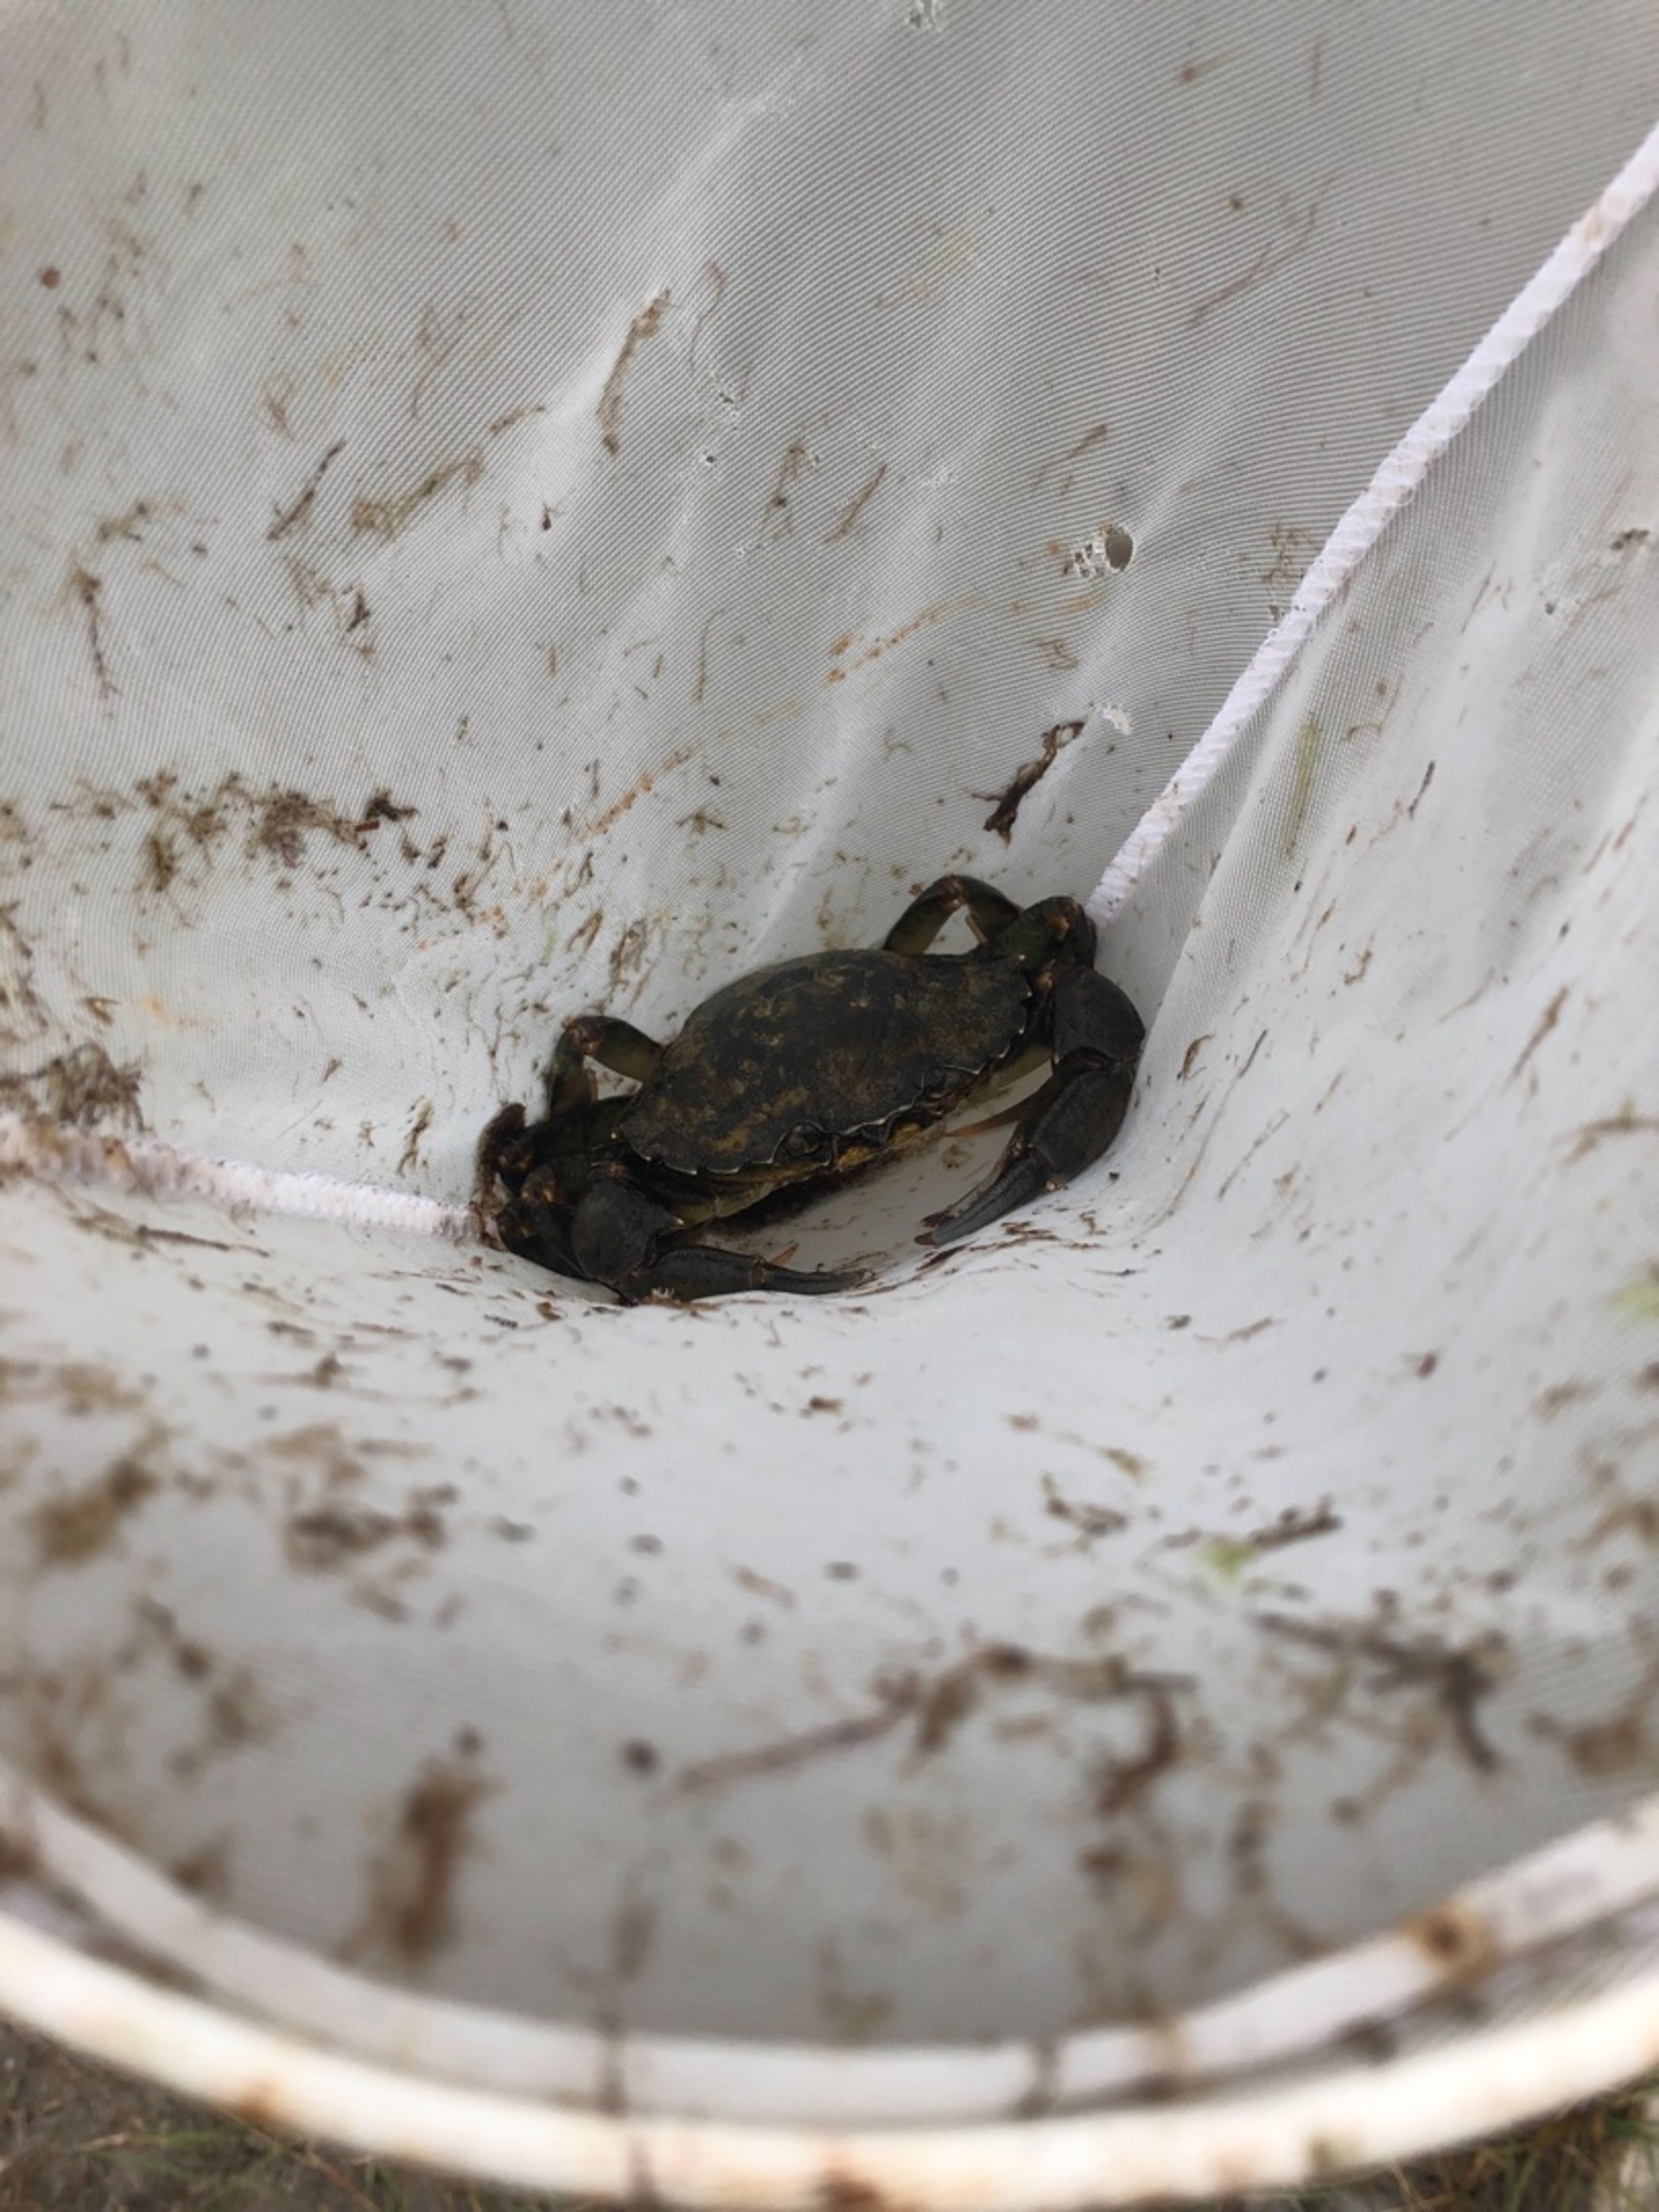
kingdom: Animalia
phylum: Arthropoda
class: Malacostraca
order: Decapoda
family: Carcinidae
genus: Carcinus
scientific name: Carcinus maenas
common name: Almindelig strandkrabbe
